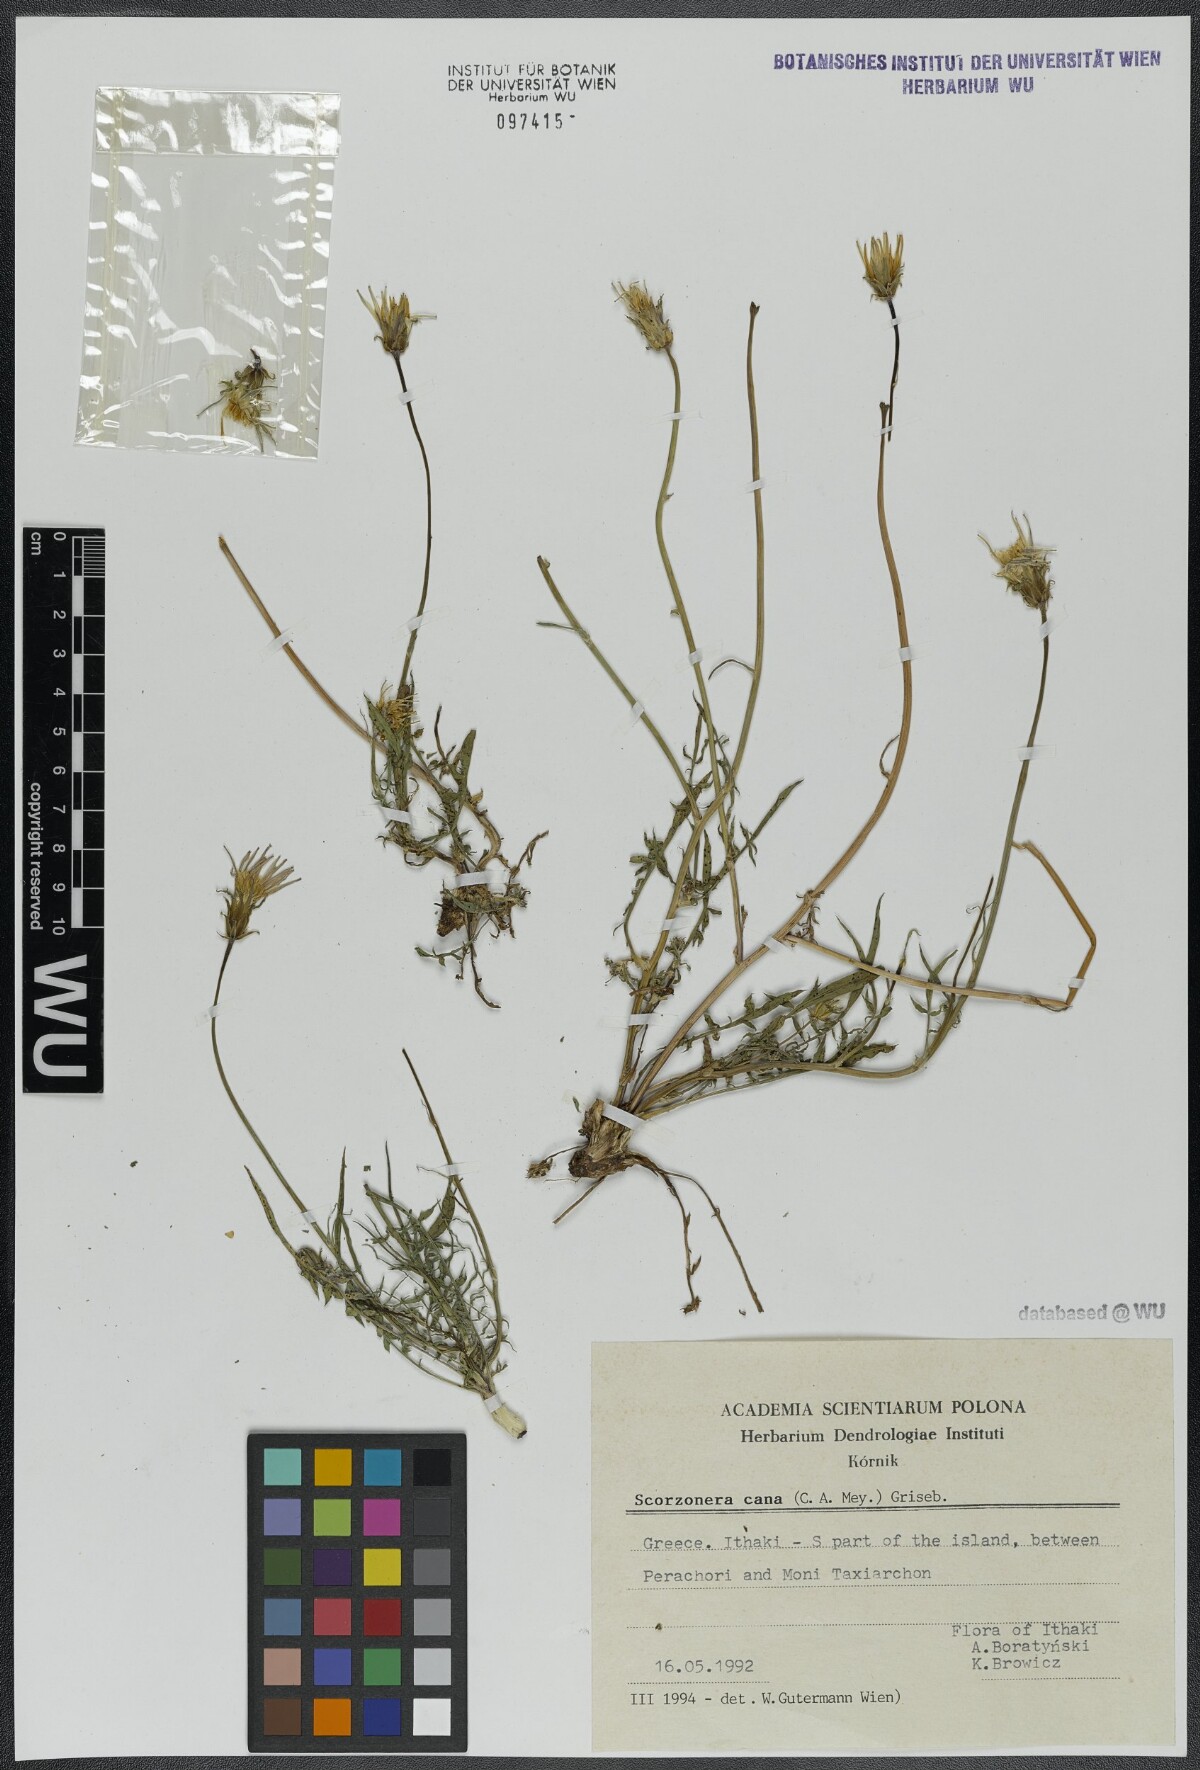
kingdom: Plantae
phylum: Tracheophyta
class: Magnoliopsida
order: Asterales
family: Asteraceae
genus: Scorzonera
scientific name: Scorzonera cana
